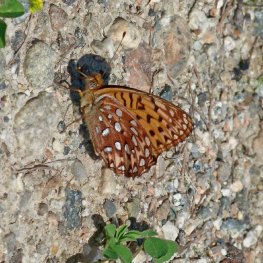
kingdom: Animalia
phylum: Arthropoda
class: Insecta
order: Lepidoptera
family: Nymphalidae
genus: Speyeria
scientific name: Speyeria hydaspe
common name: Hydaspe Fritillary
